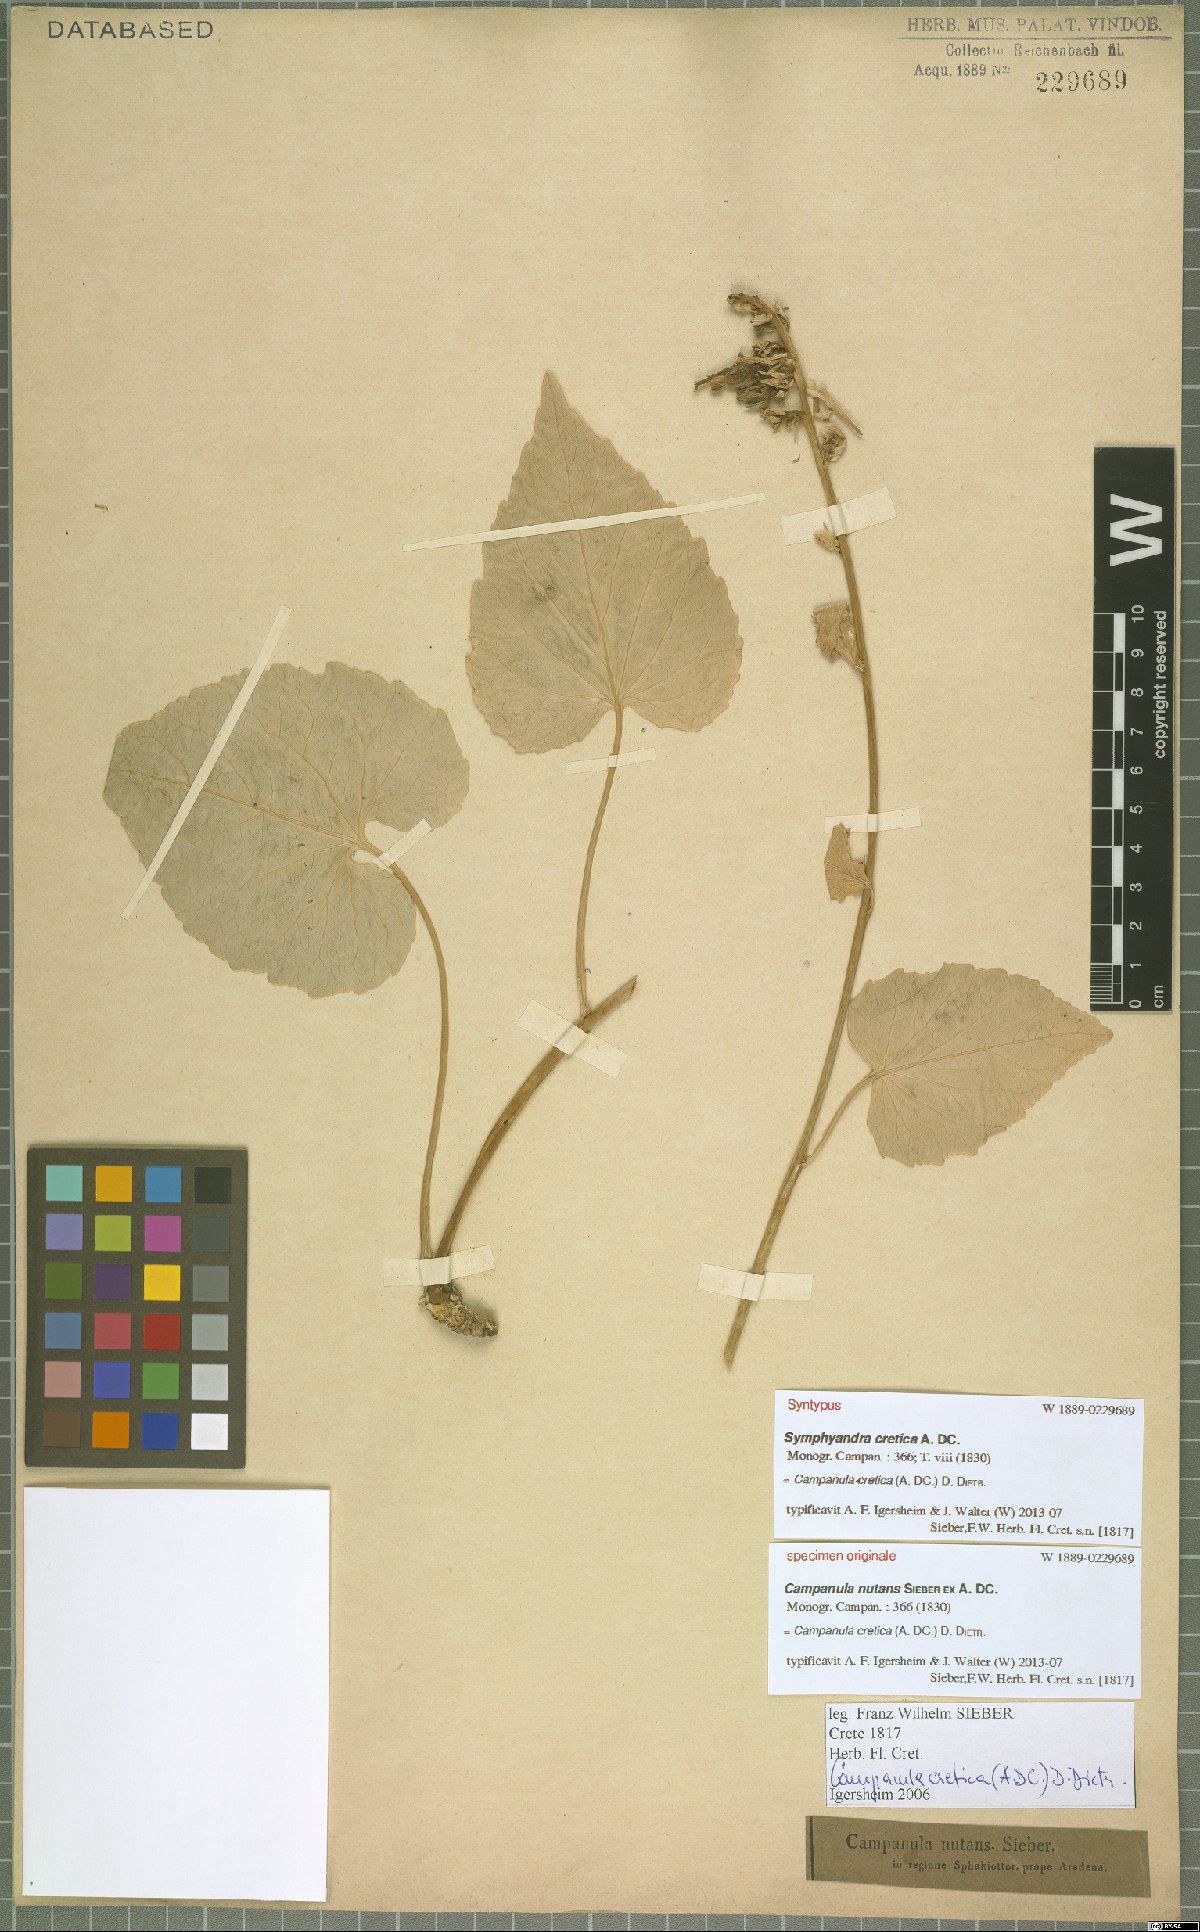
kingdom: Plantae
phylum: Tracheophyta
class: Magnoliopsida
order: Asterales
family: Campanulaceae
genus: Campanula
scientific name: Campanula cretica
